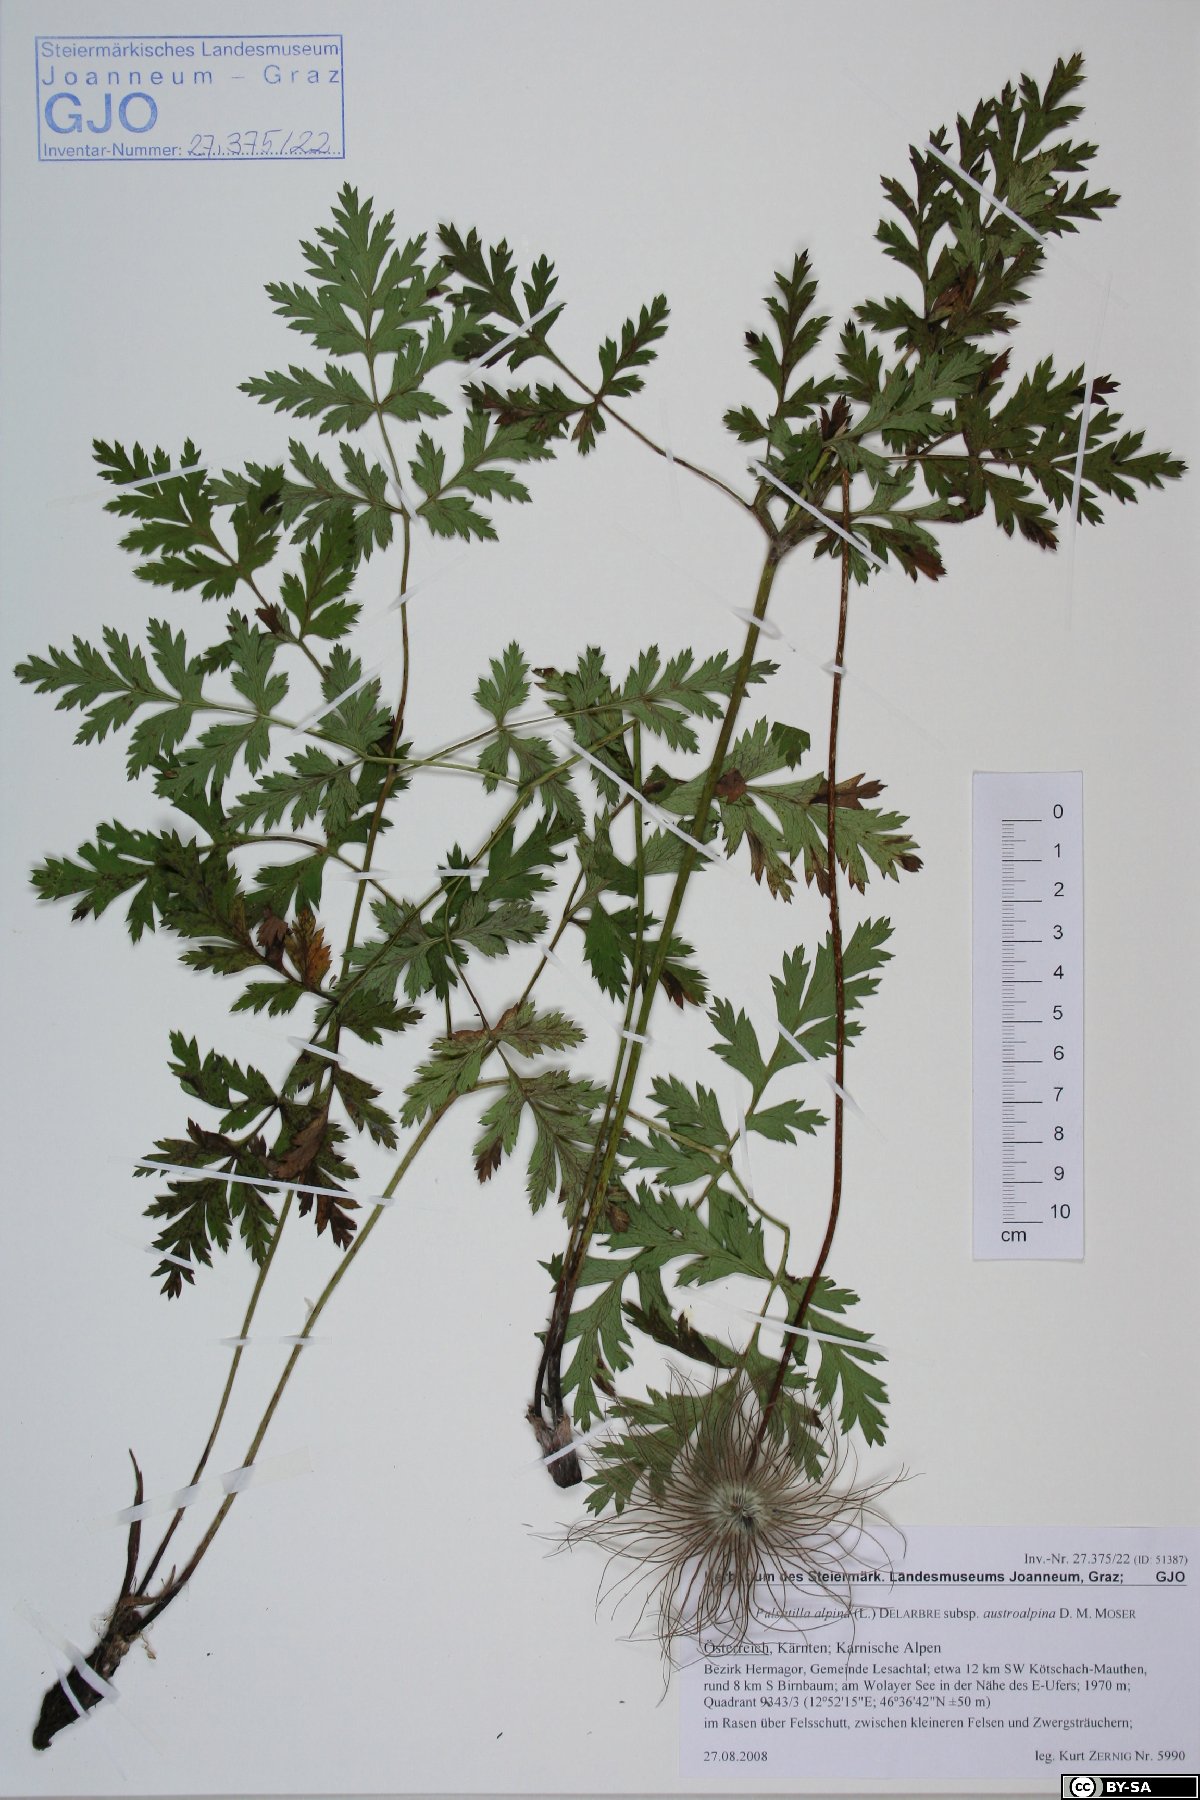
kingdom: Plantae
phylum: Tracheophyta
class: Magnoliopsida
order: Ranunculales
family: Ranunculaceae
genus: Pulsatilla
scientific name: Pulsatilla alpina
